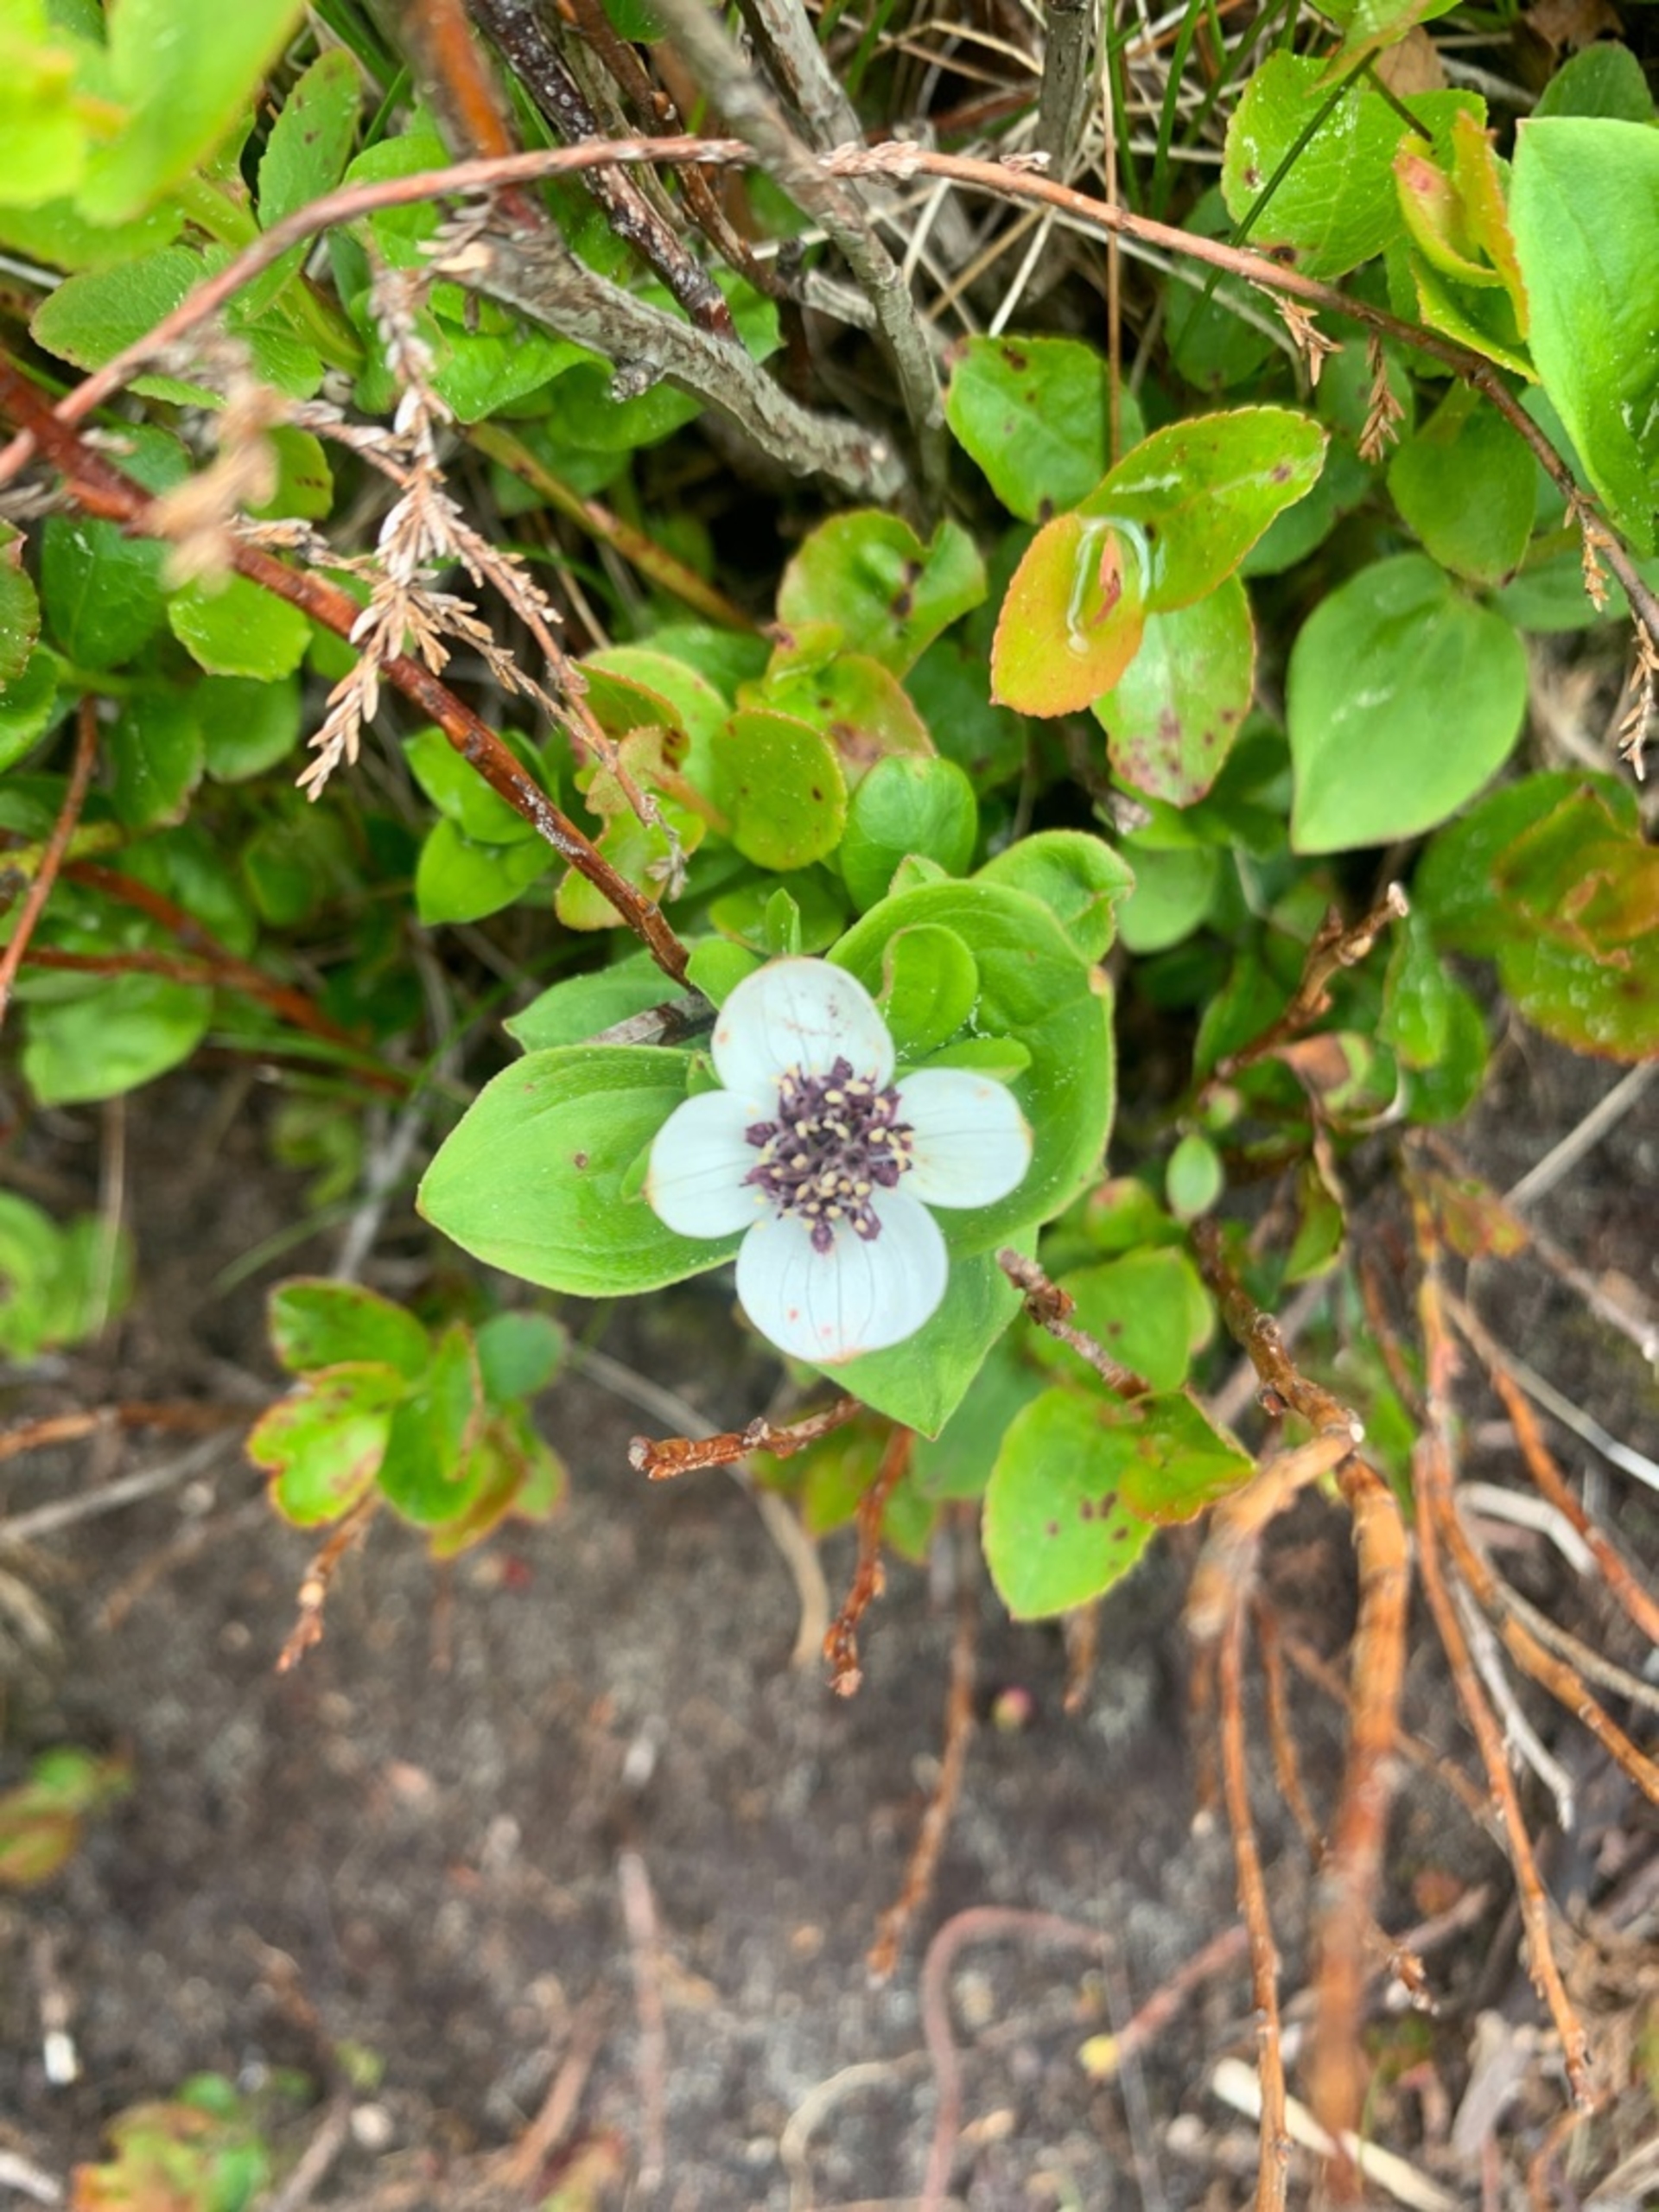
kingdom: Plantae
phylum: Tracheophyta
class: Magnoliopsida
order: Cornales
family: Cornaceae
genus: Cornus
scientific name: Cornus suecica
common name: Hønsebær
